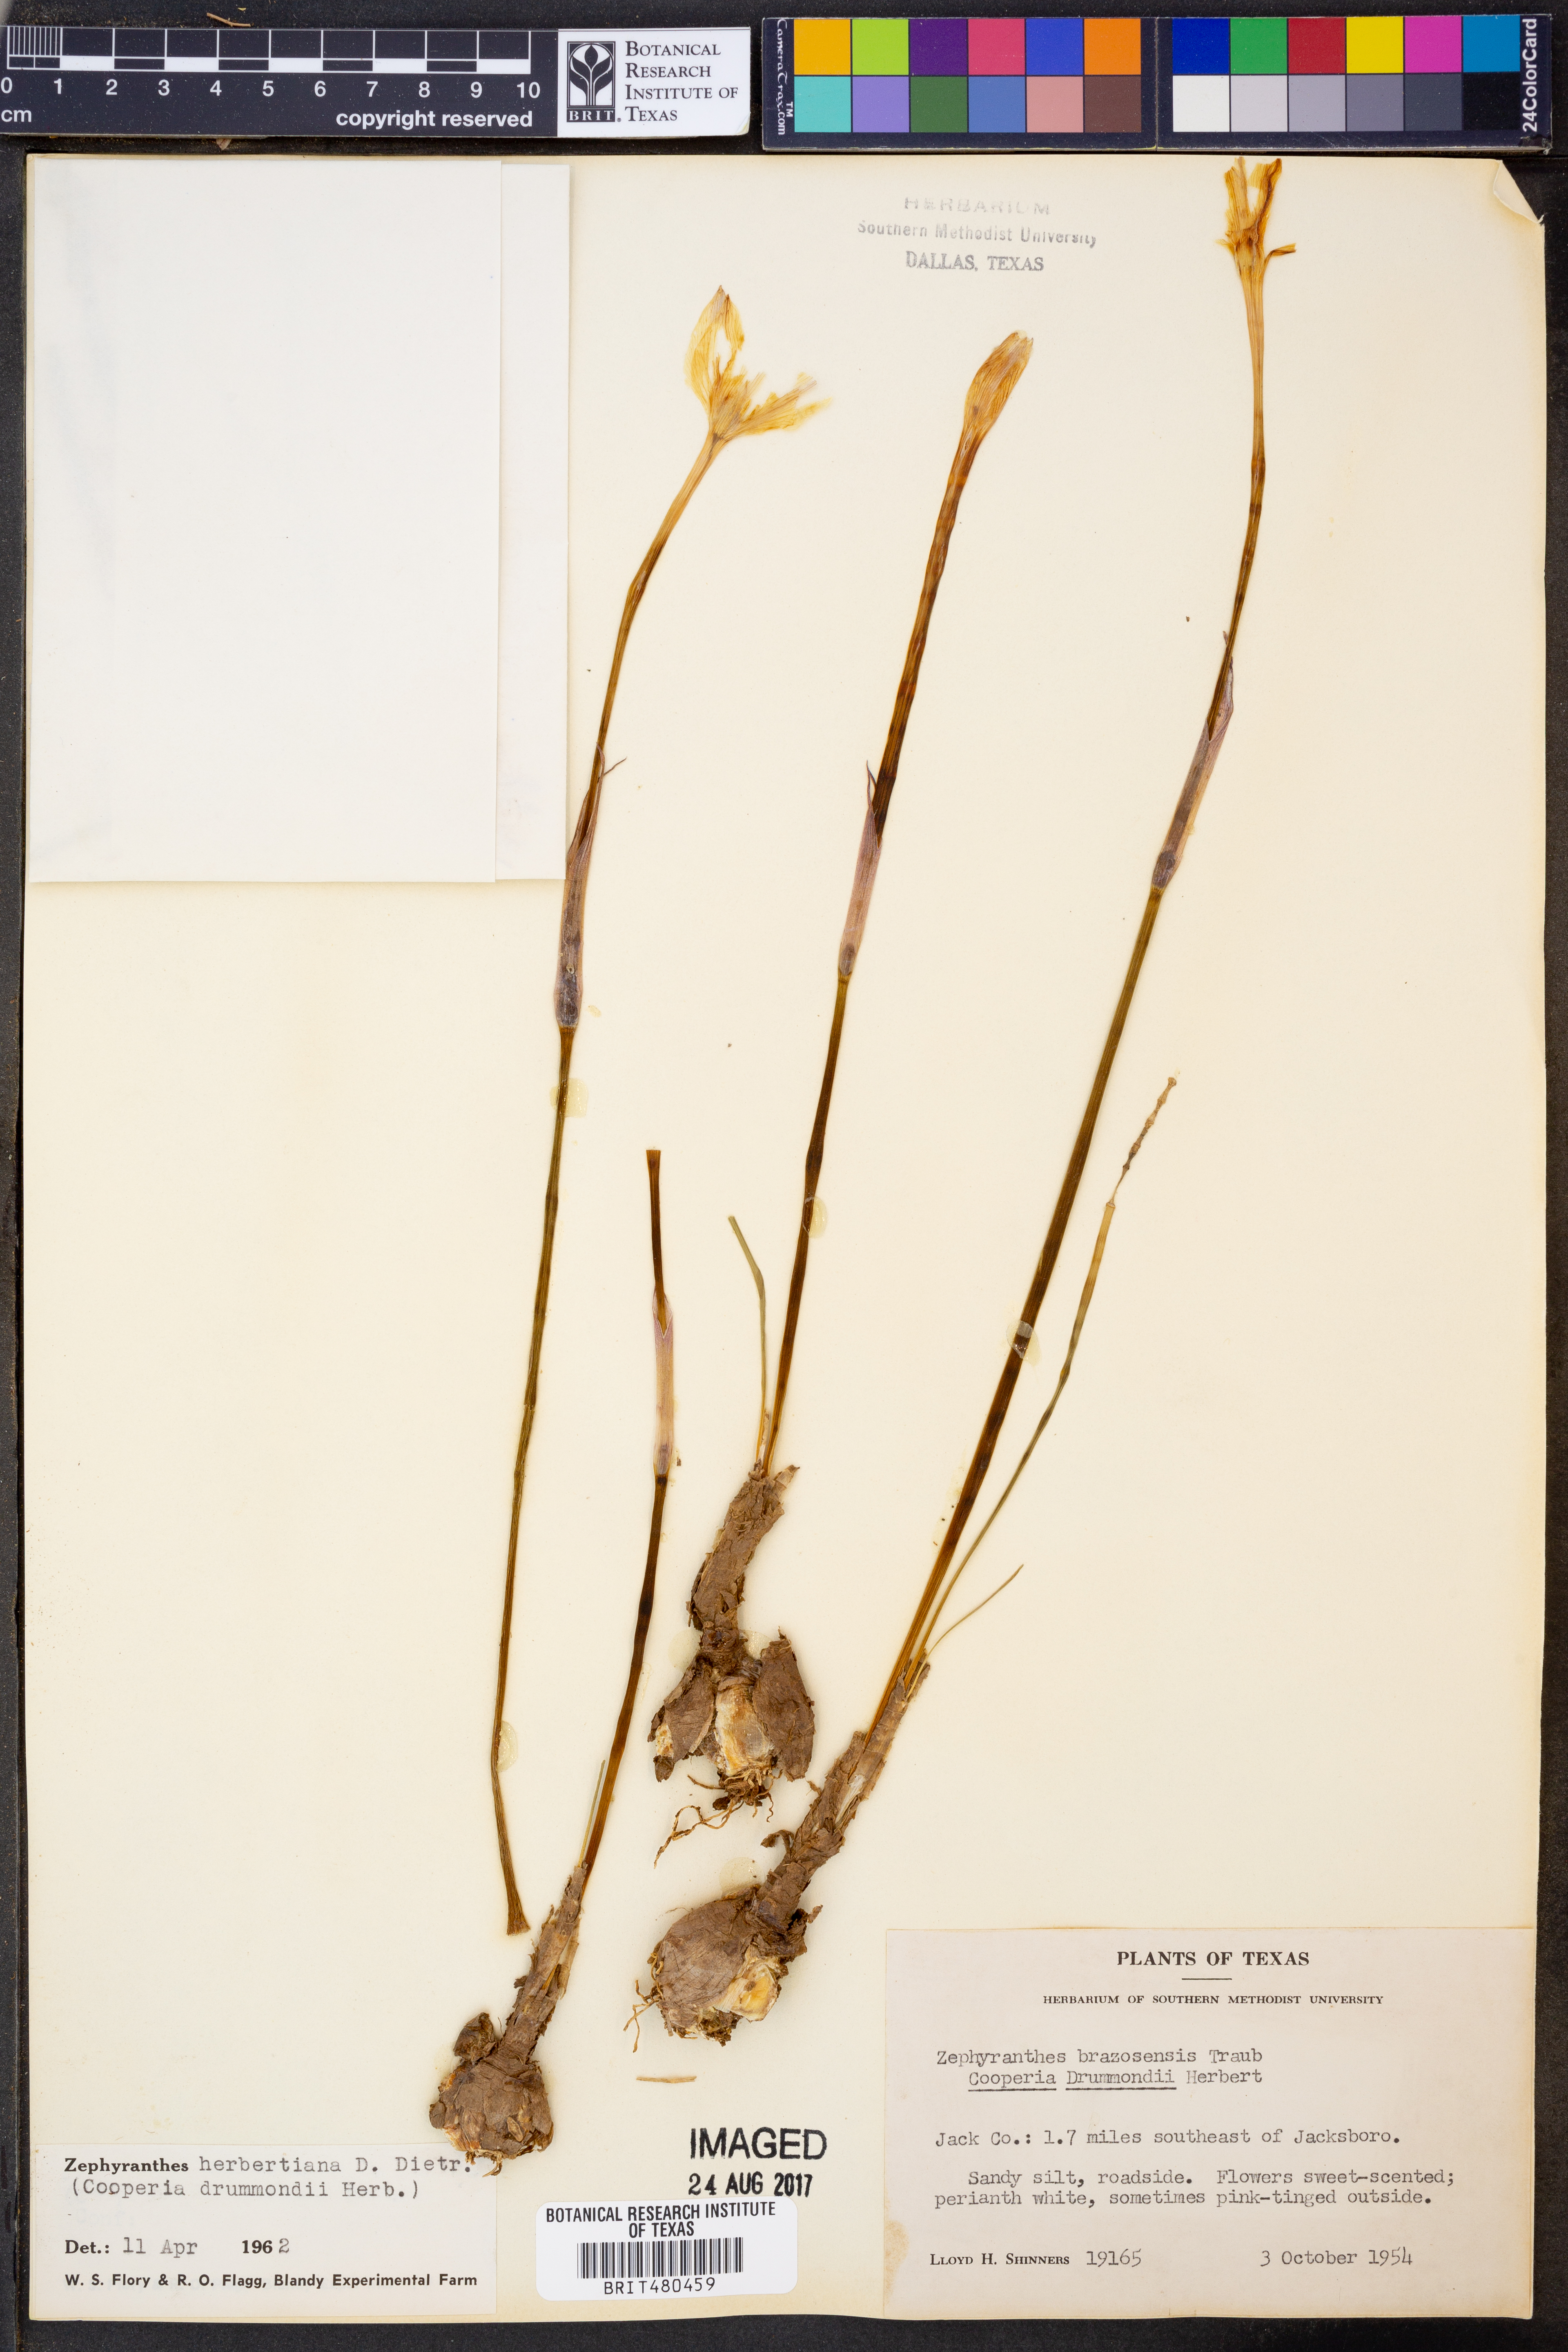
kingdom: Plantae
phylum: Tracheophyta
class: Liliopsida
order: Asparagales
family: Amaryllidaceae
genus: Zephyranthes
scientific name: Zephyranthes chlorosolen
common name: Evening rain-lily
